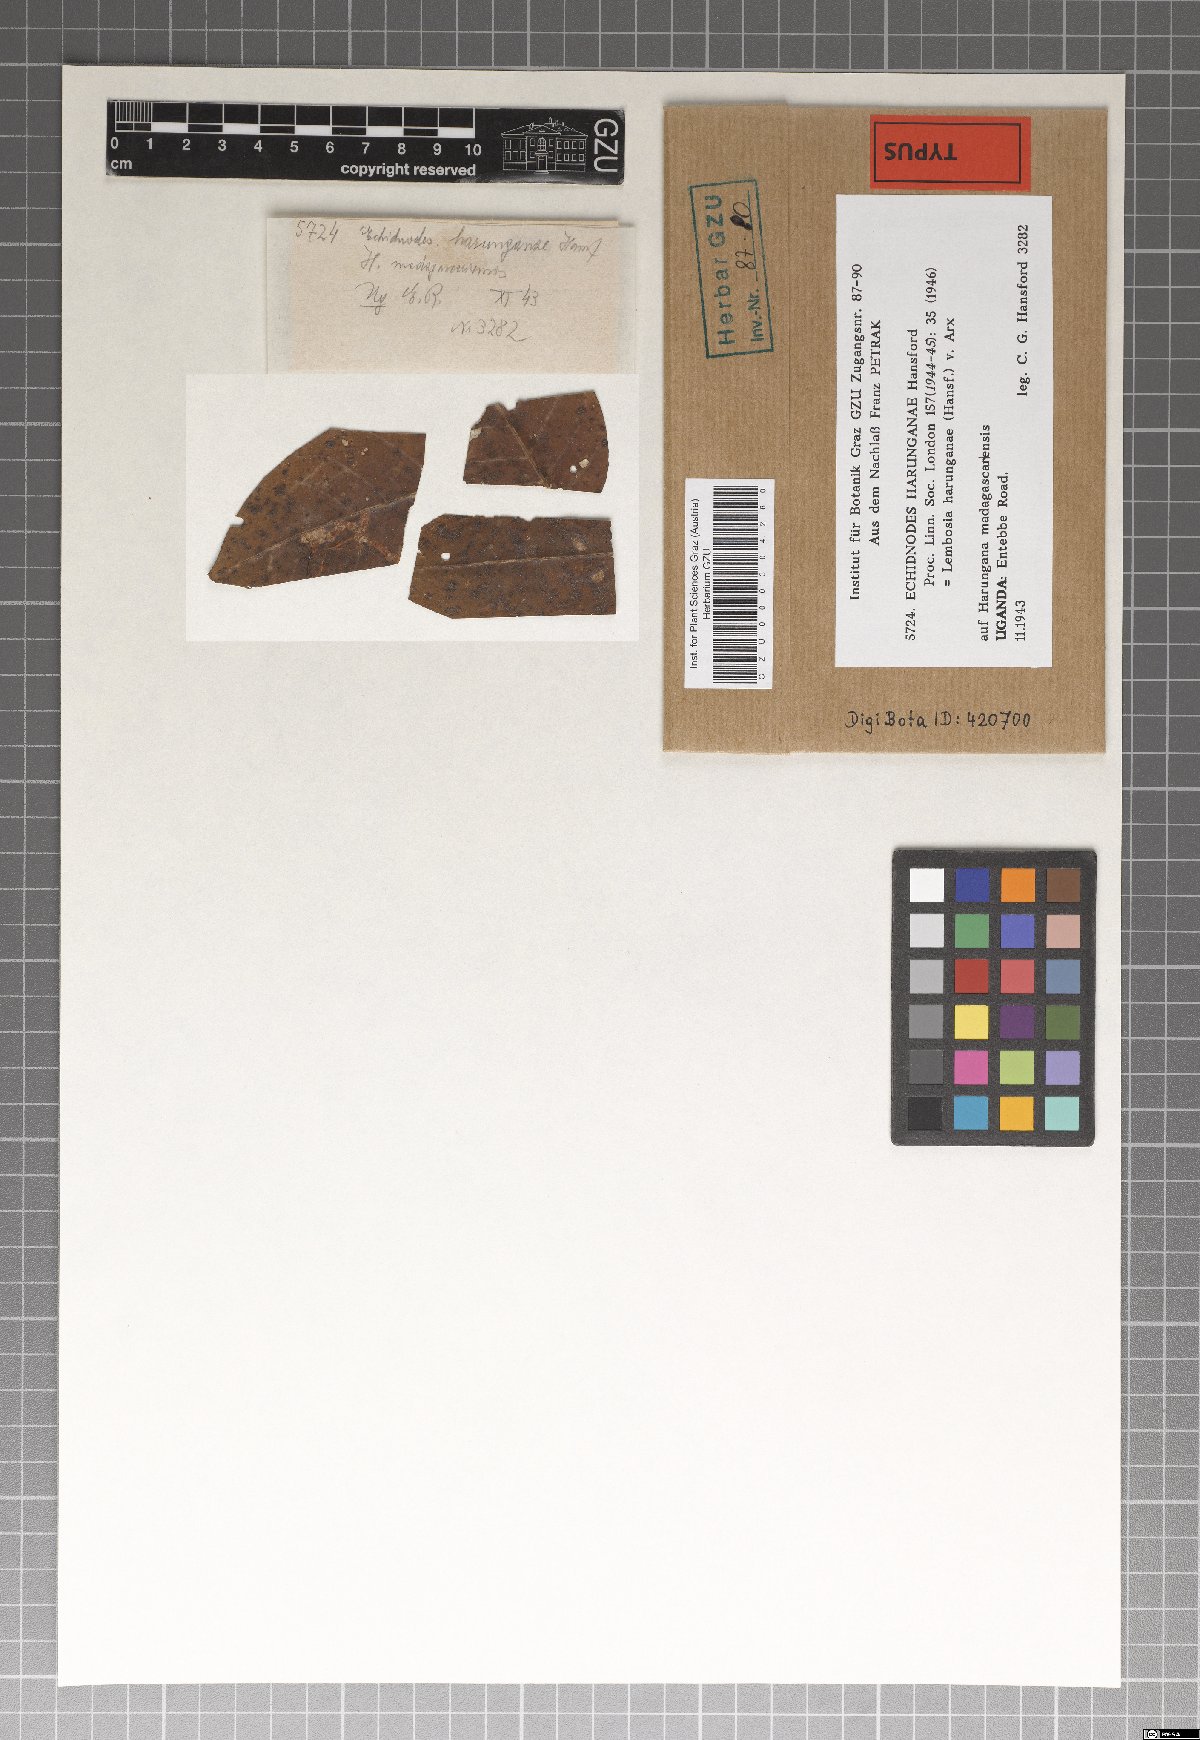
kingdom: Fungi
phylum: Ascomycota
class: Dothideomycetes
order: Asterinales
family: Asterinaceae
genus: Lembosia
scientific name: Lembosia harunganae
